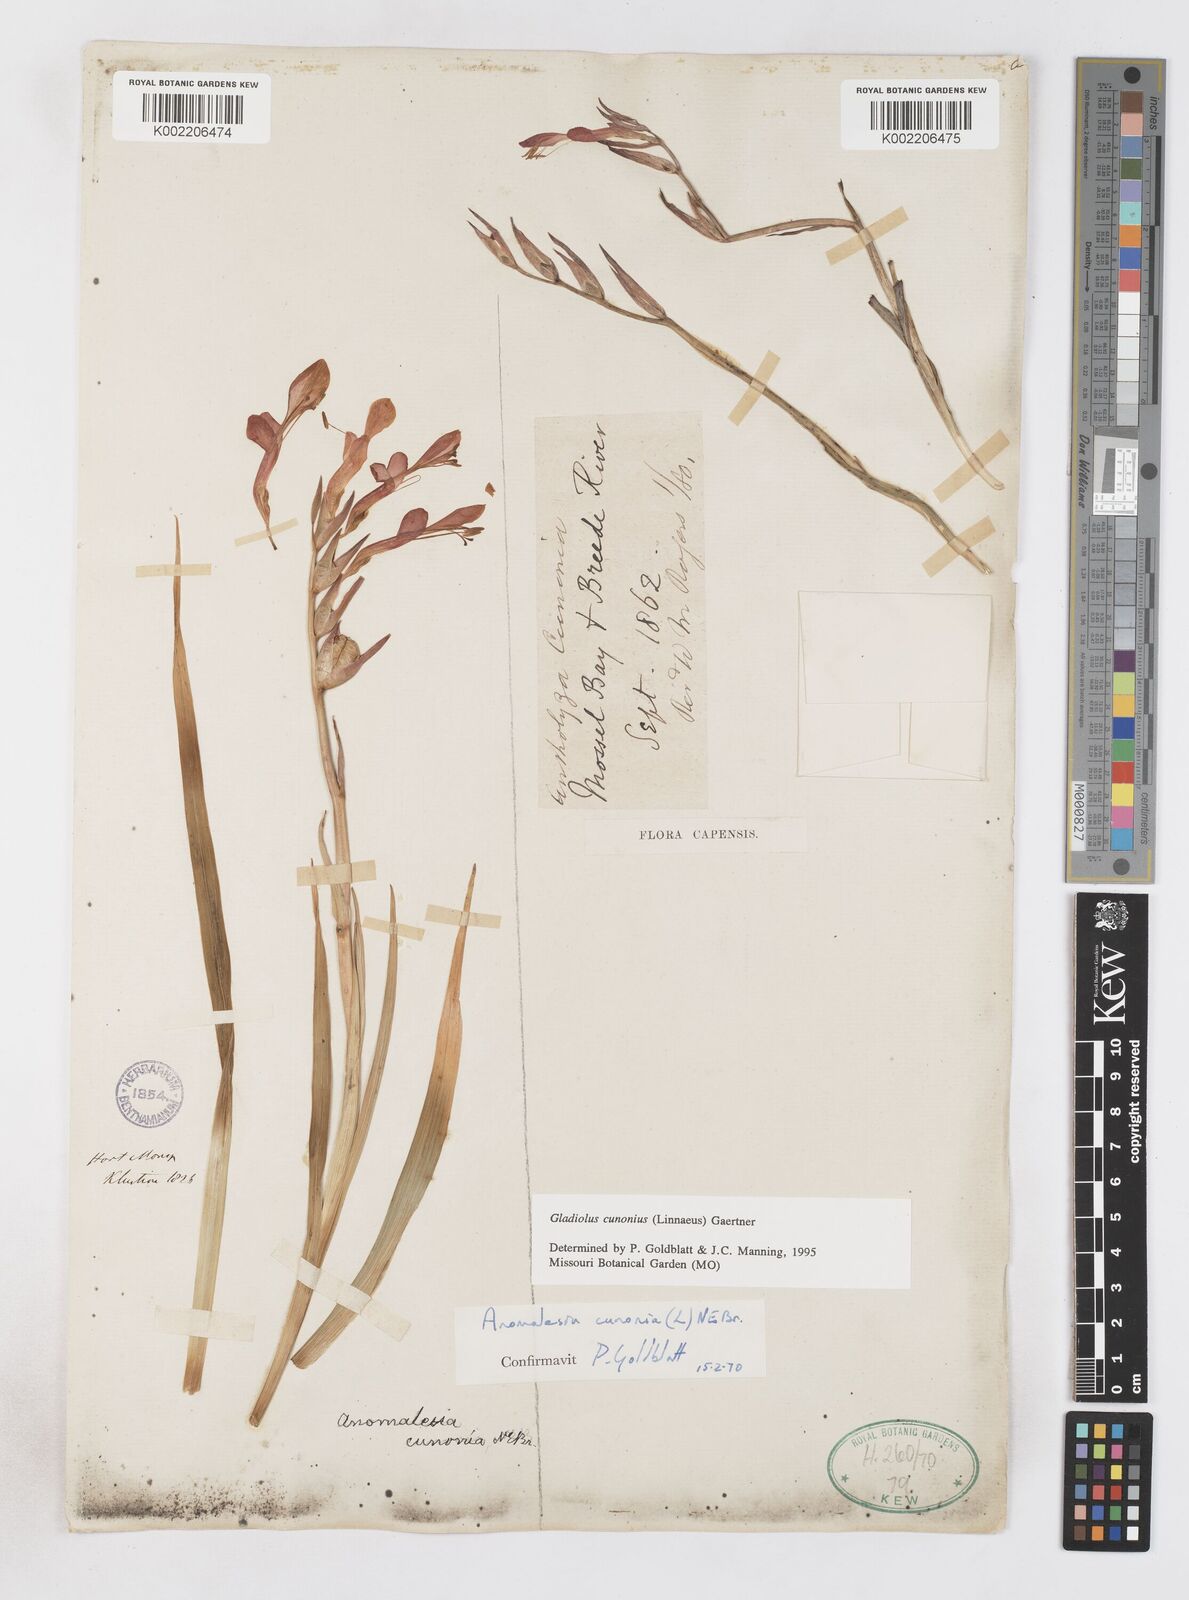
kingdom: Plantae
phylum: Tracheophyta
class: Liliopsida
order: Asparagales
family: Iridaceae
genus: Gladiolus
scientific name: Gladiolus cunonius
